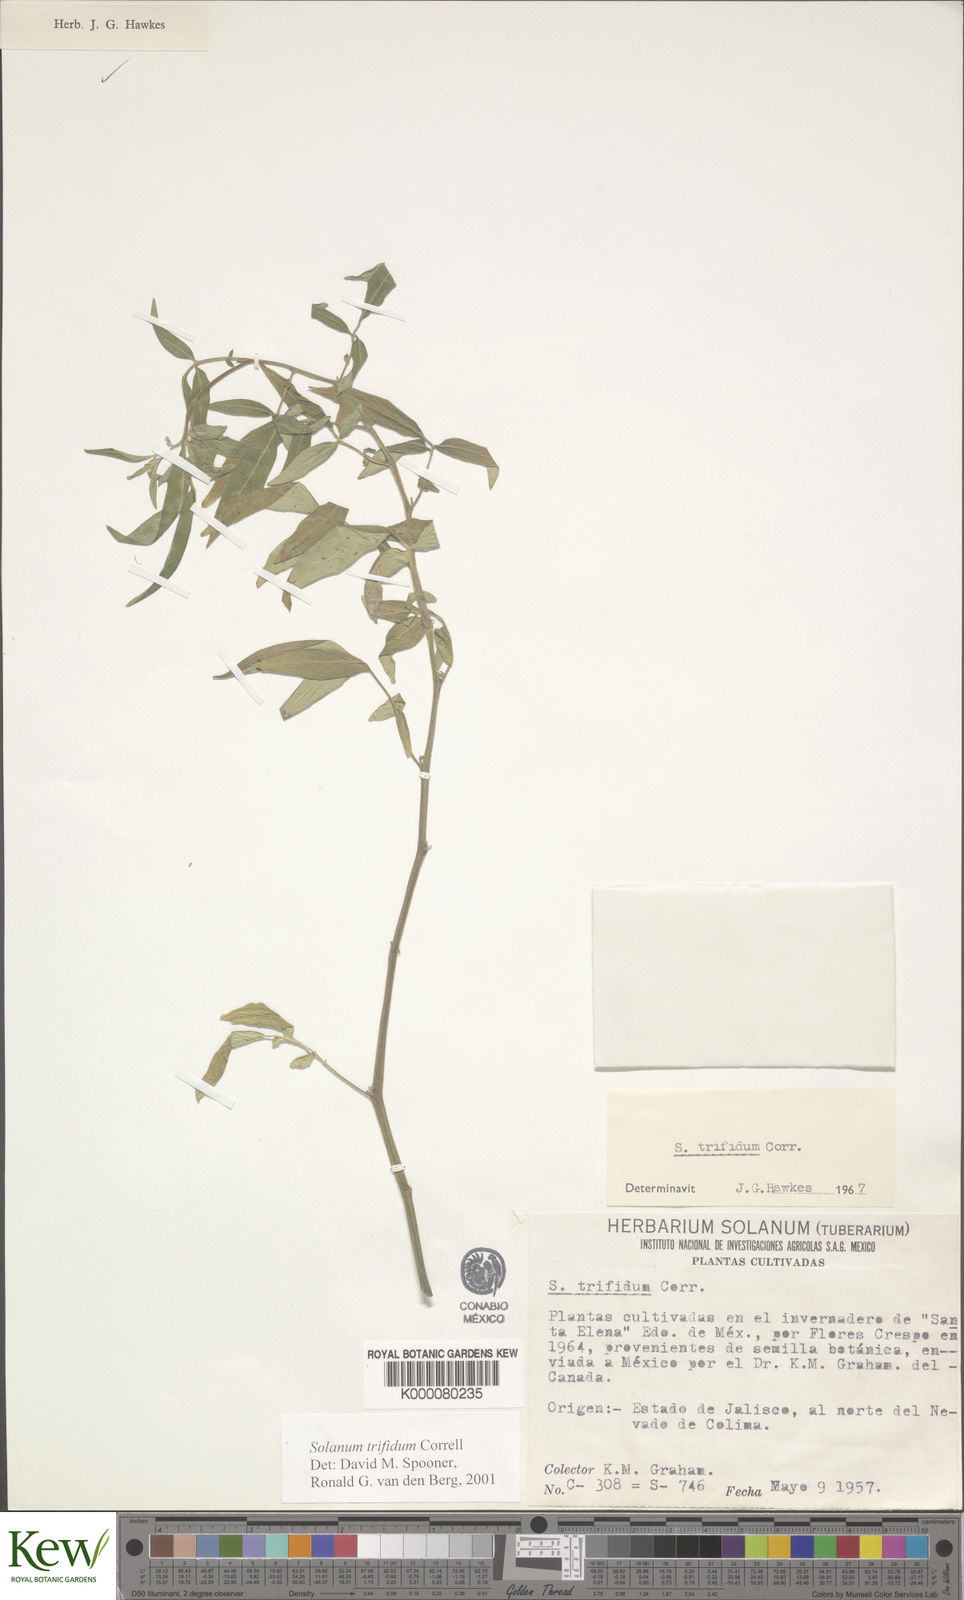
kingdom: Plantae
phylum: Tracheophyta
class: Magnoliopsida
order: Solanales
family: Solanaceae
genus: Solanum
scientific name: Solanum trifidum
